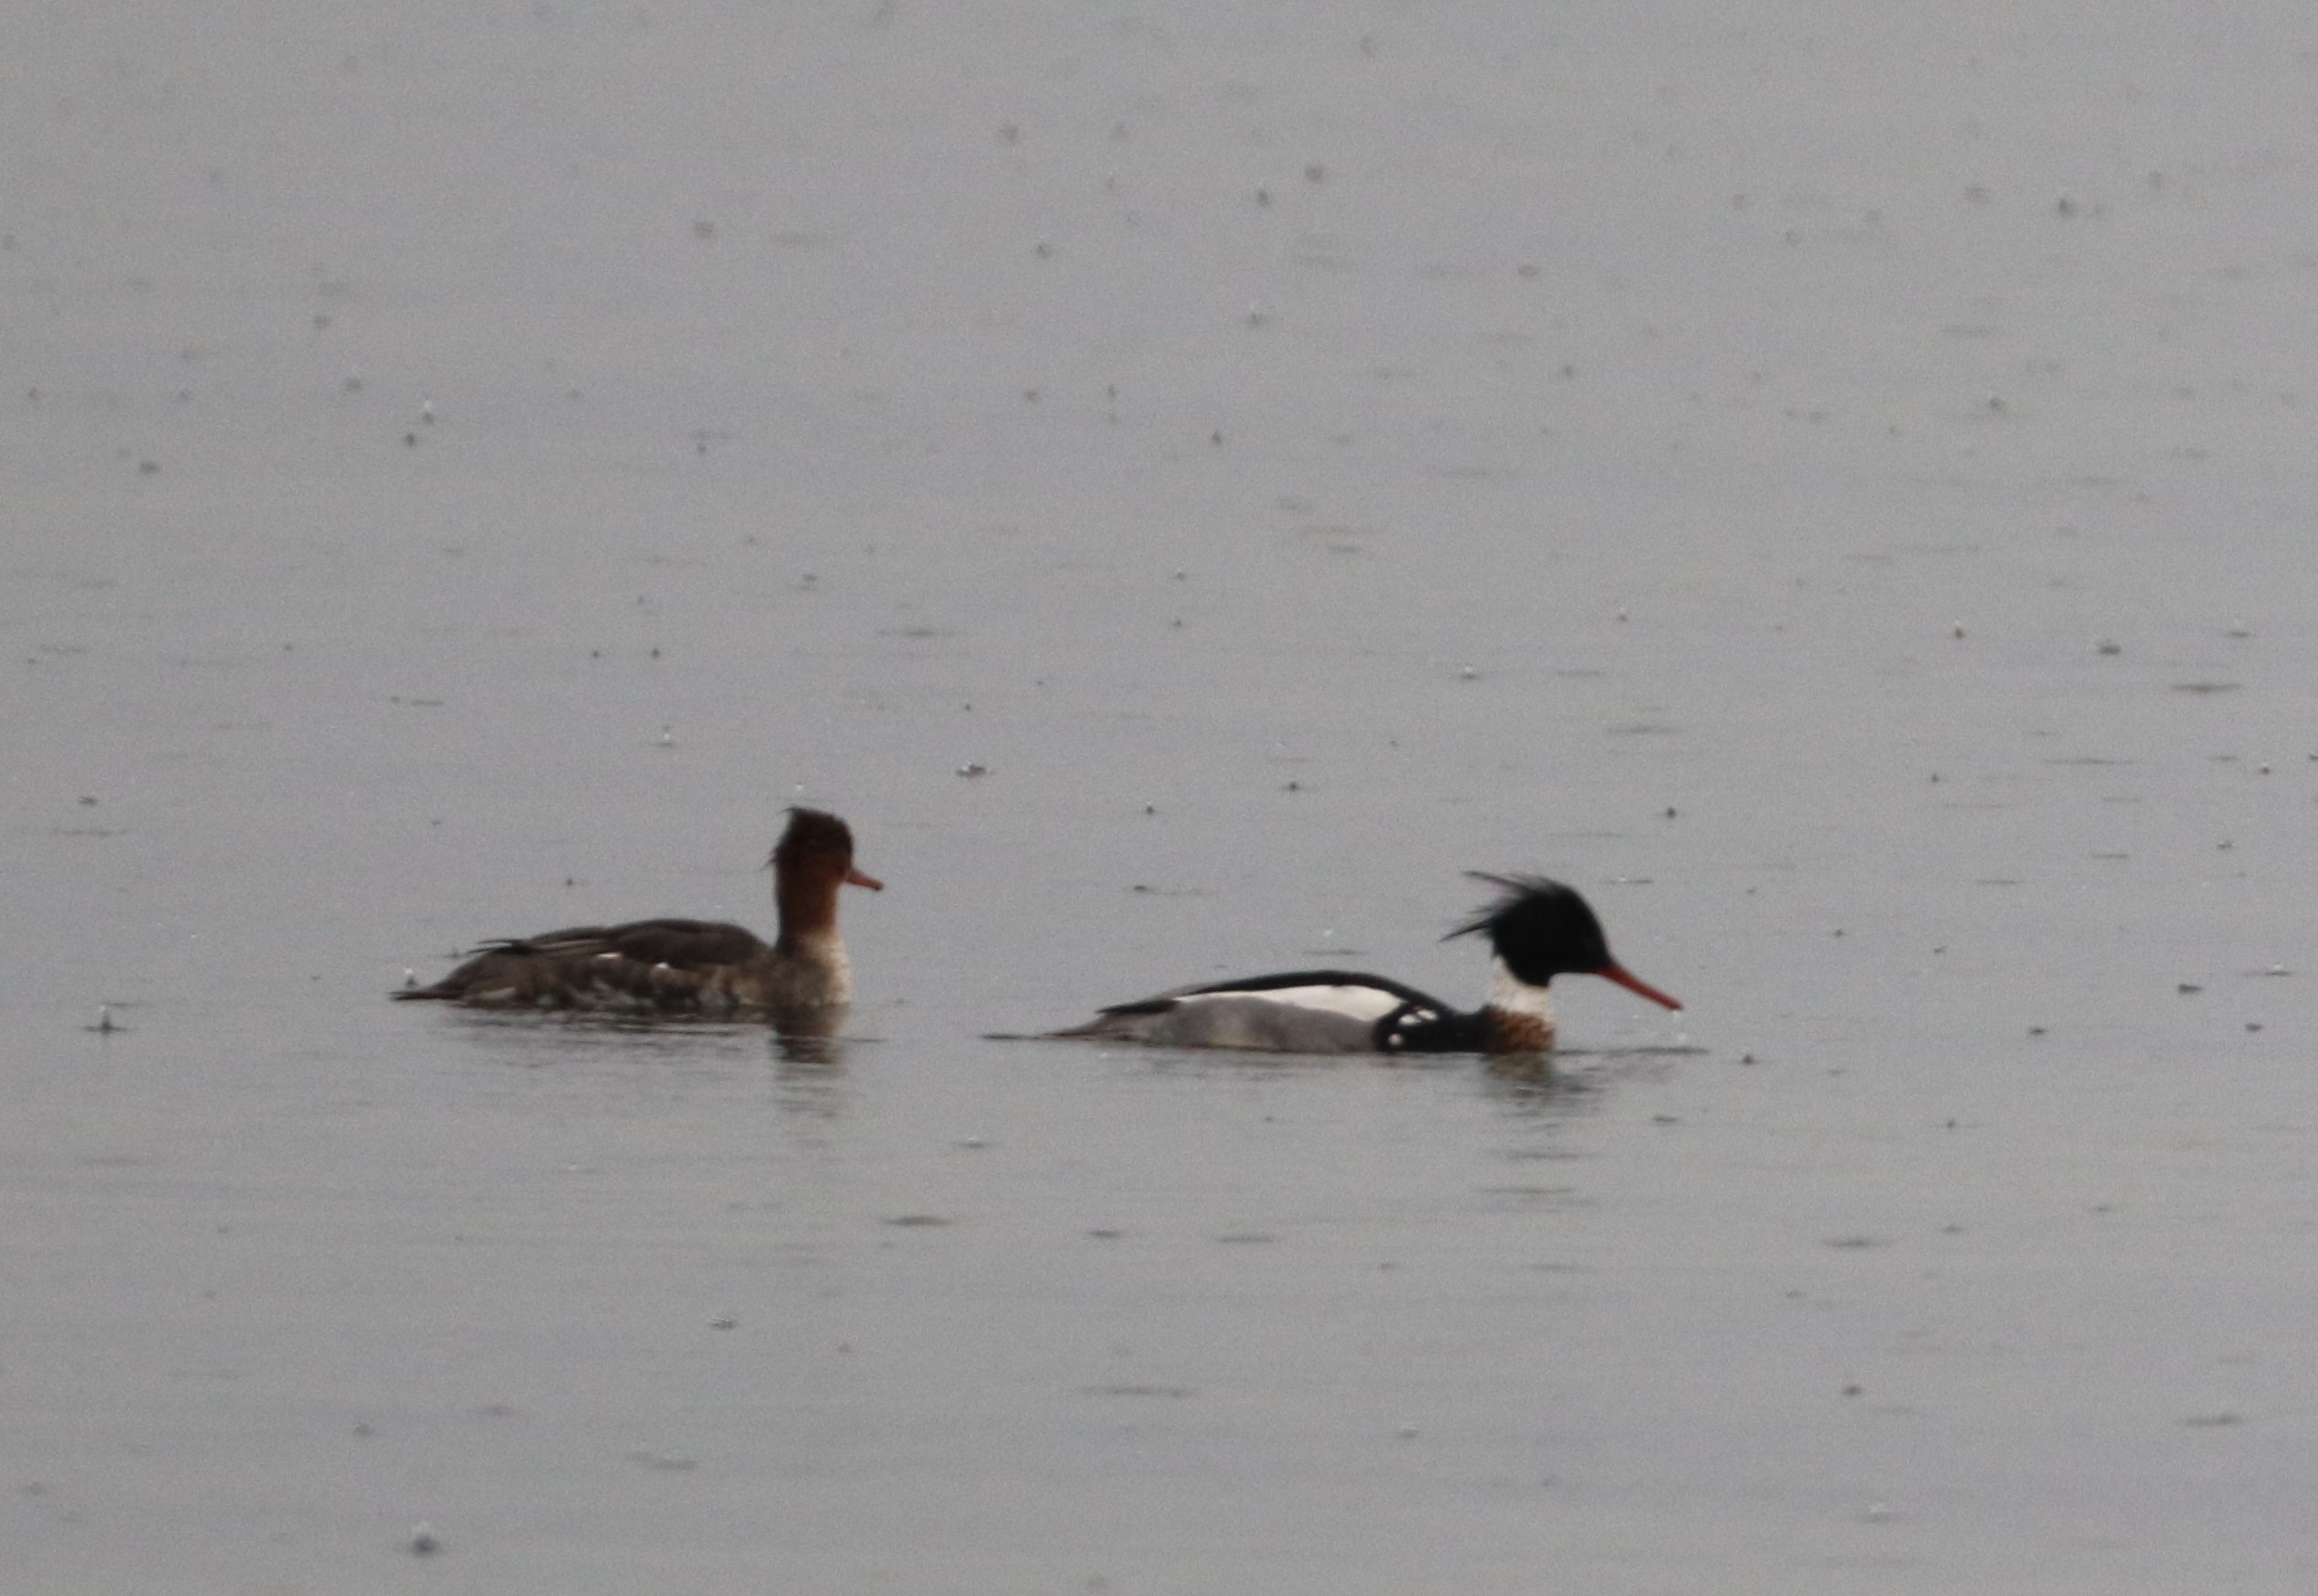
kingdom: Animalia
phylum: Chordata
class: Aves
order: Anseriformes
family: Anatidae
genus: Mergus
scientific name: Mergus serrator
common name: Toppet skallesluger
